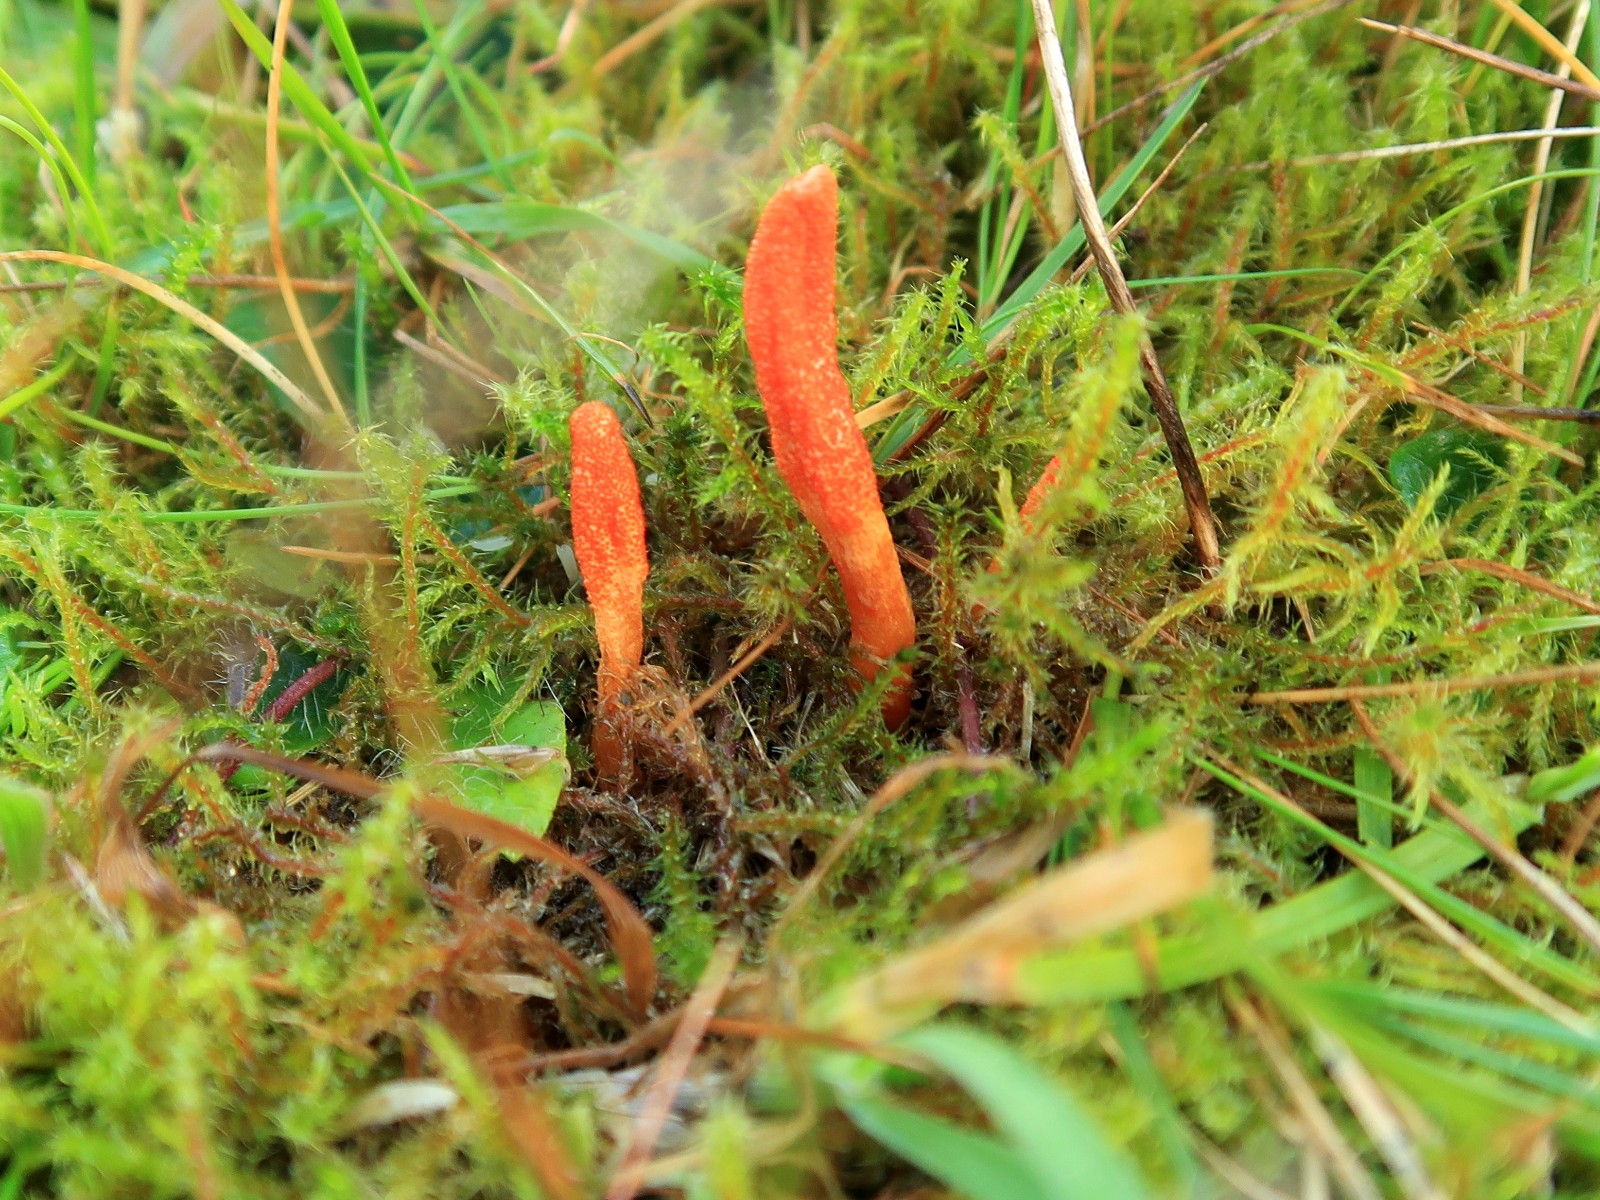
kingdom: Fungi
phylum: Ascomycota
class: Sordariomycetes
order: Hypocreales
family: Cordycipitaceae
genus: Cordyceps
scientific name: Cordyceps militaris
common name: puppe-snyltekølle
